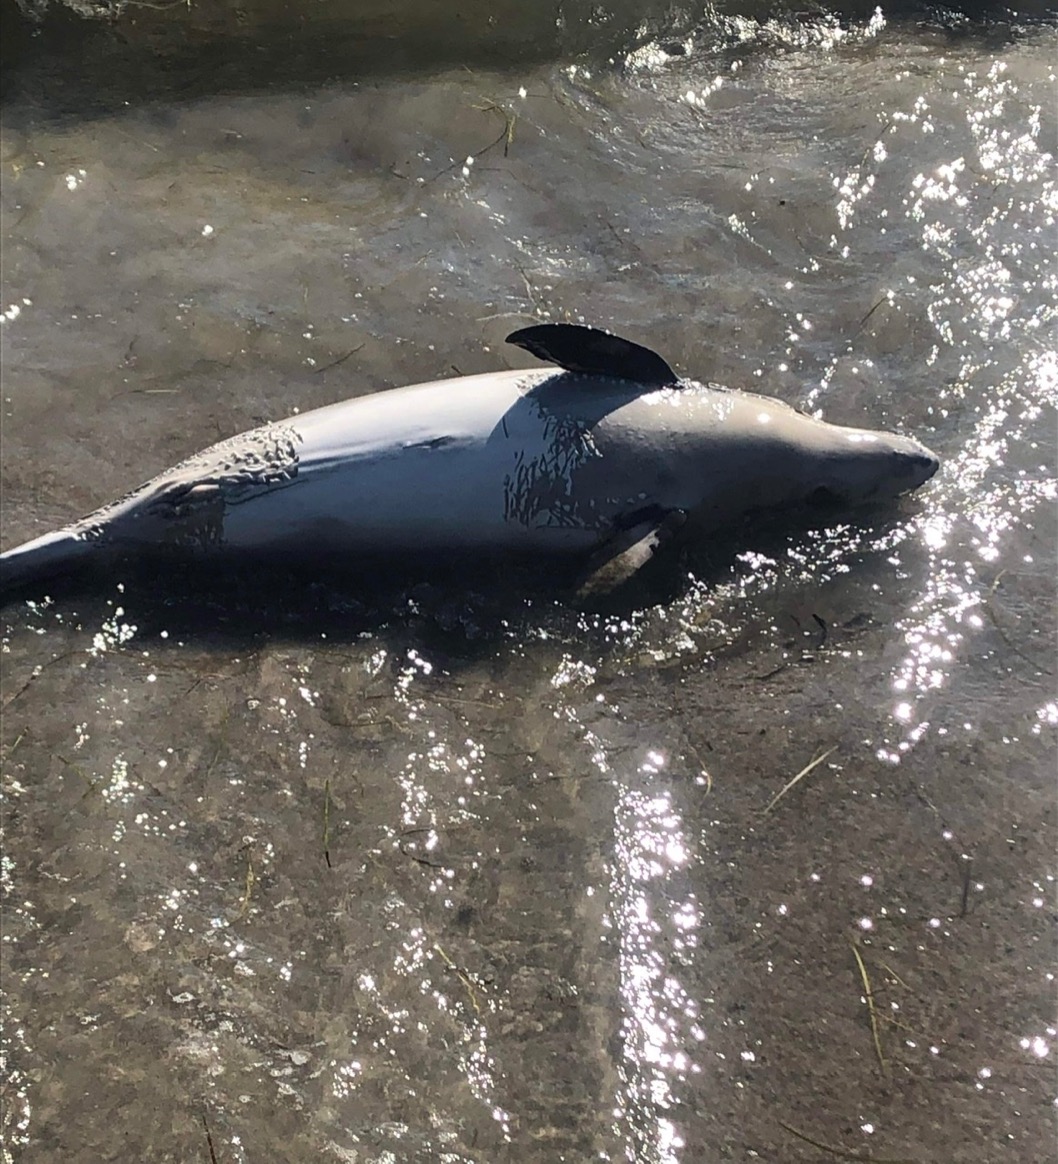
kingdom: Animalia
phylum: Chordata
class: Mammalia
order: Cetacea
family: Phocoenidae
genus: Phocoena
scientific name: Phocoena phocoena
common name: Marsvin
